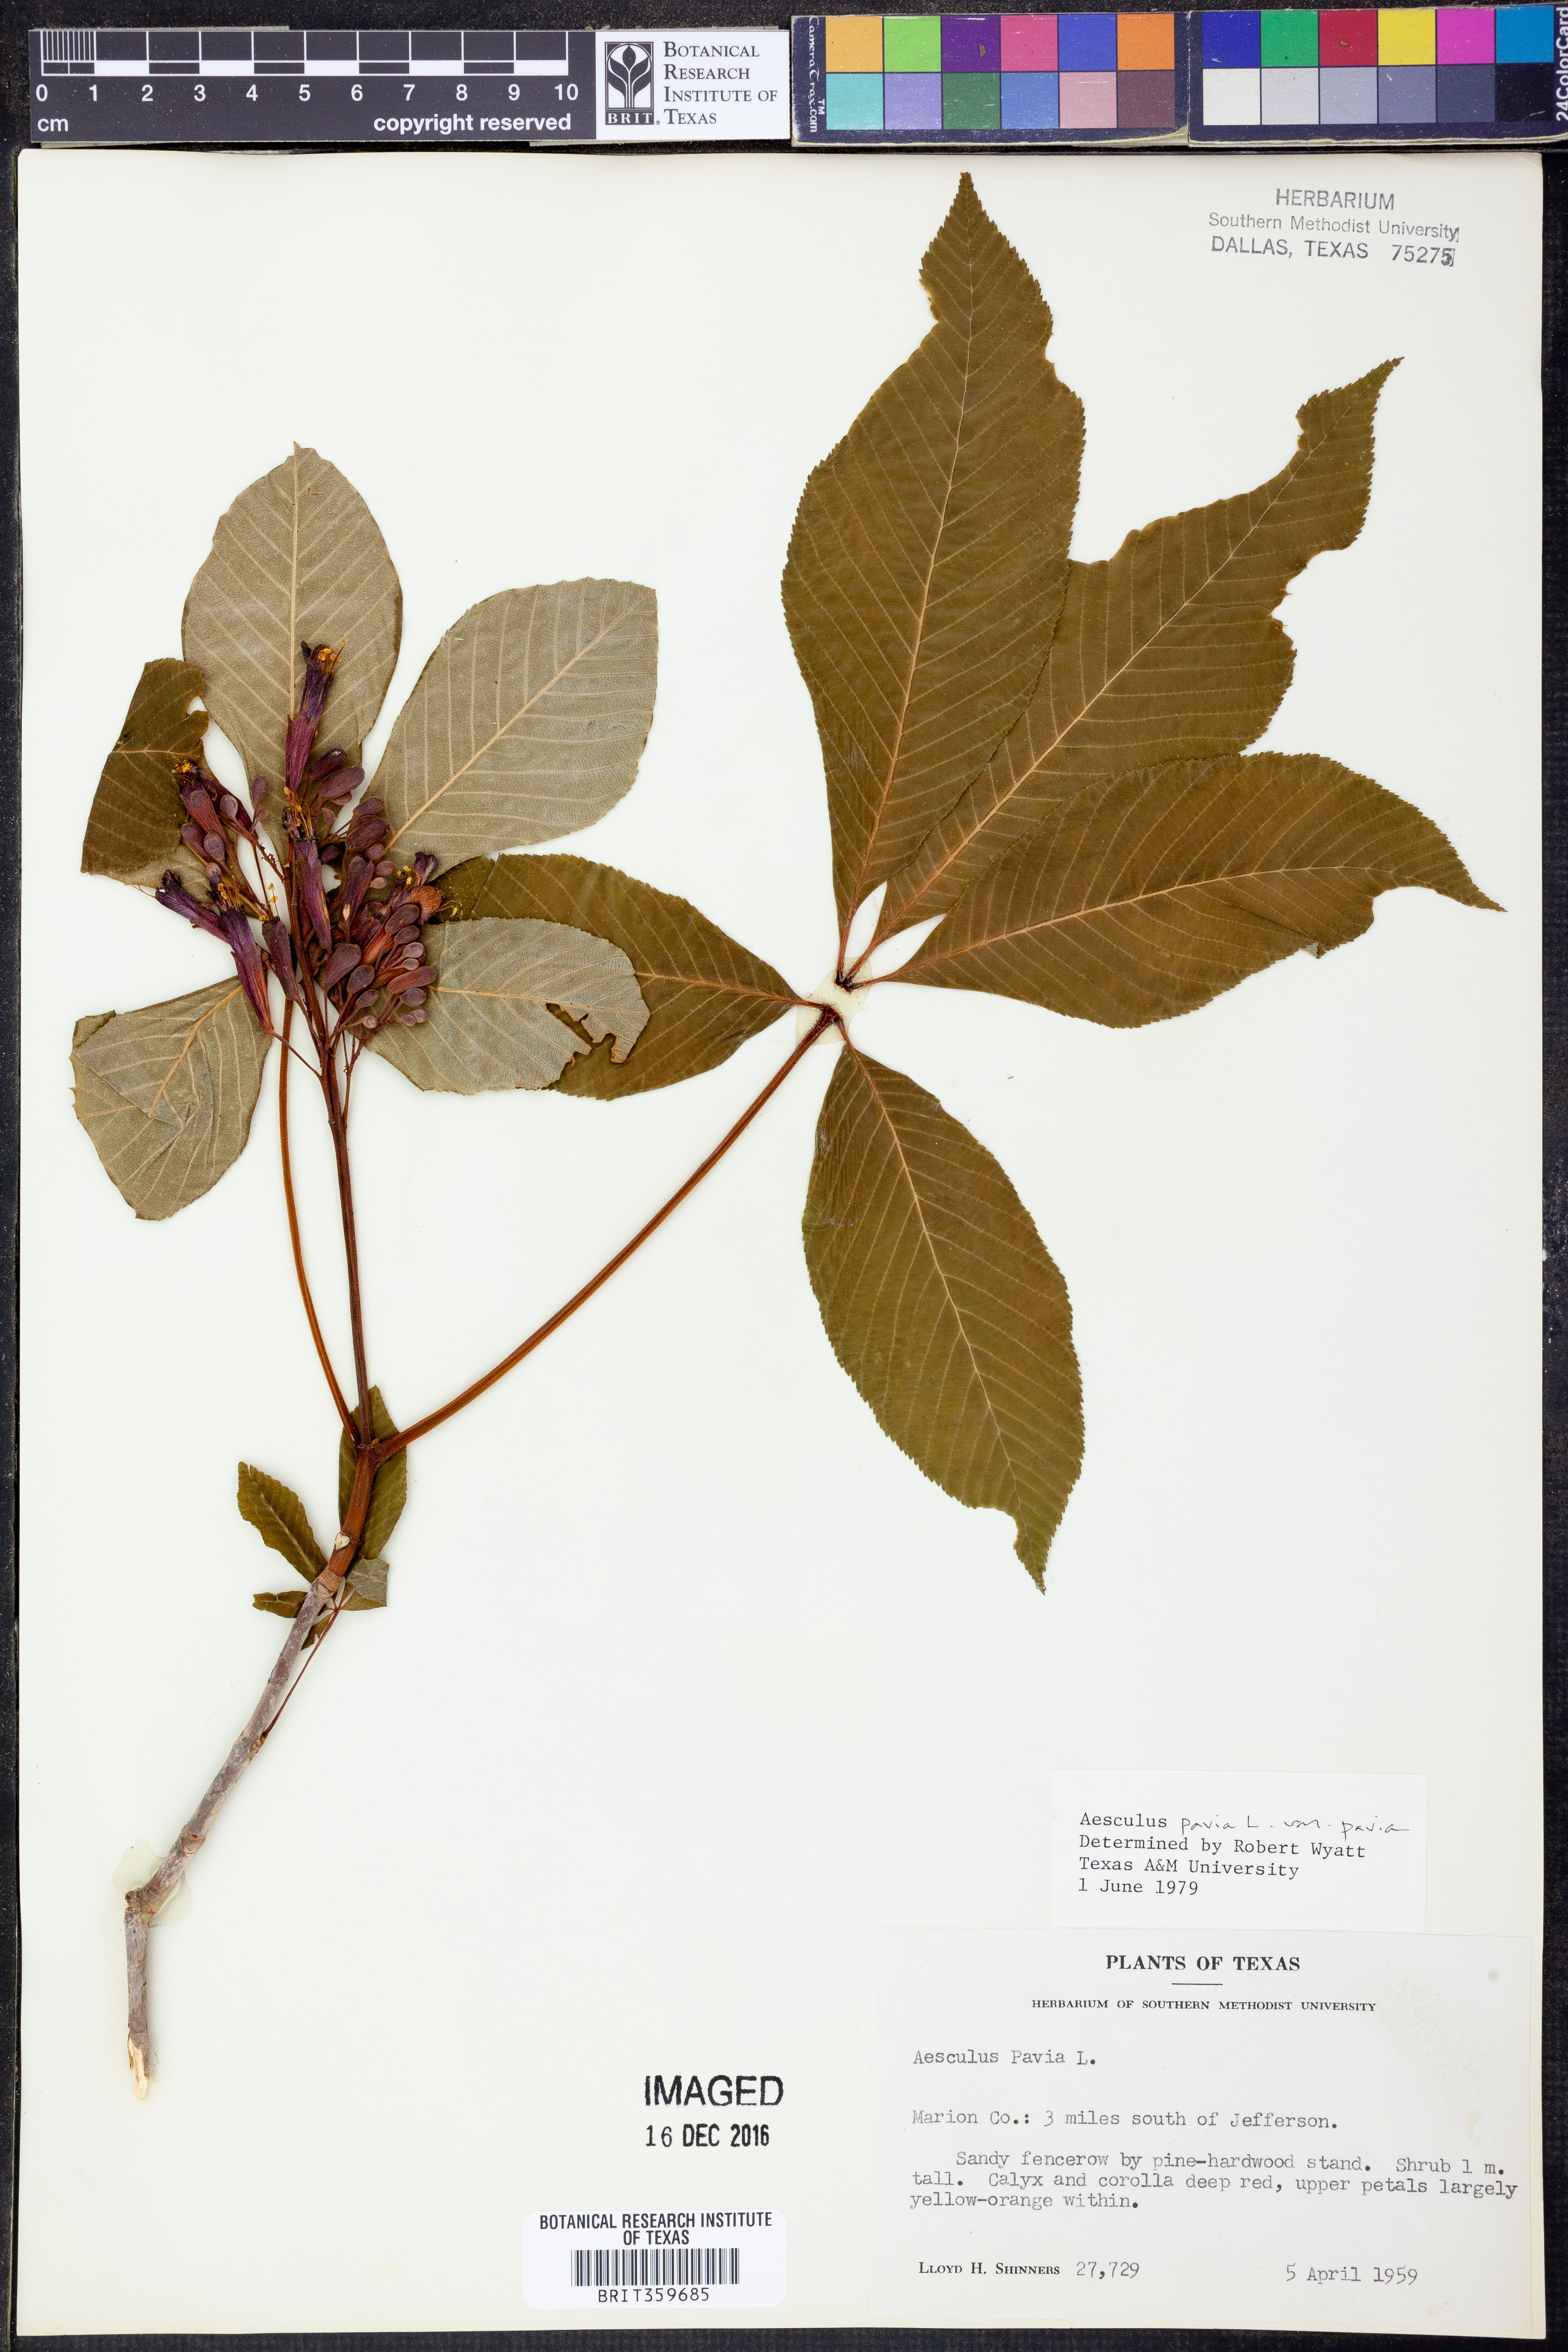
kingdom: Plantae
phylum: Tracheophyta
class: Magnoliopsida
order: Sapindales
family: Sapindaceae
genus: Aesculus
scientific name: Aesculus pavia
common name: Red buckeye
